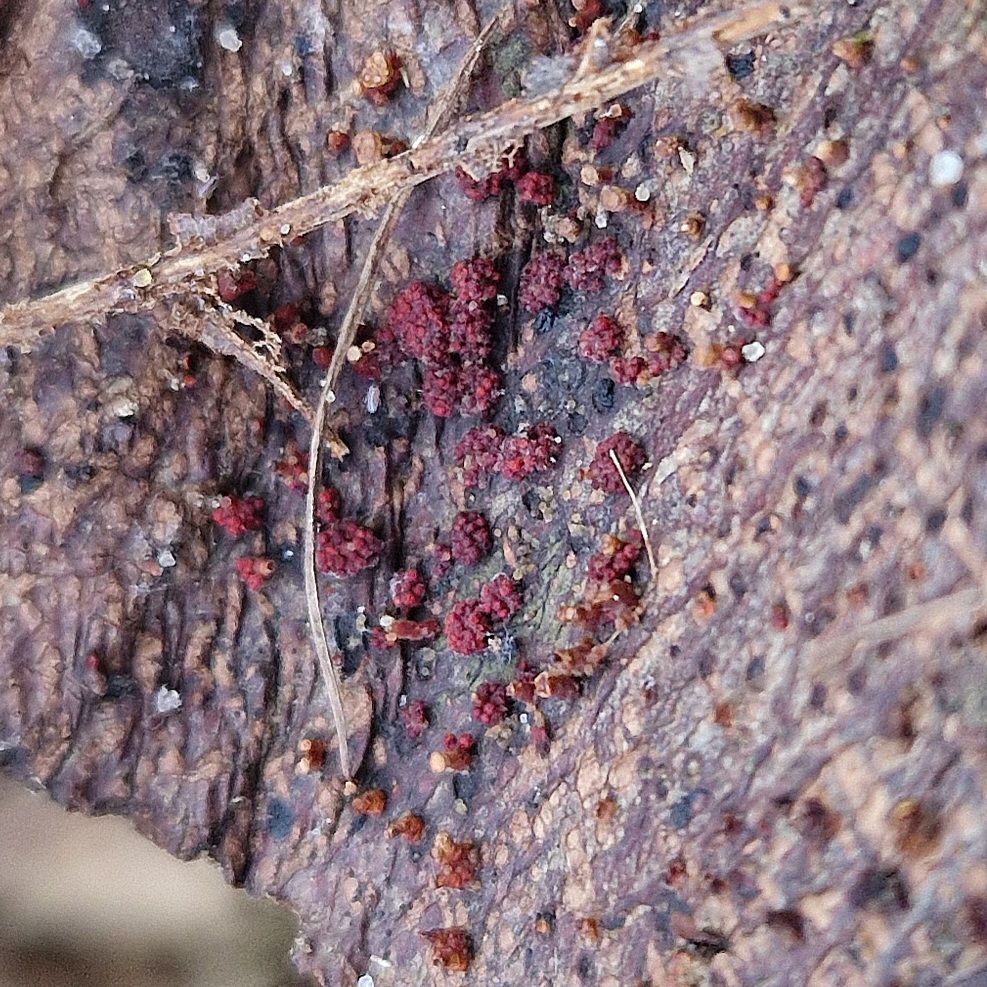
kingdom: Fungi
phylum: Ascomycota
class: Sordariomycetes
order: Hypocreales
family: Nectriaceae
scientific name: Nectriaceae
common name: cinnobersvampfamilien
